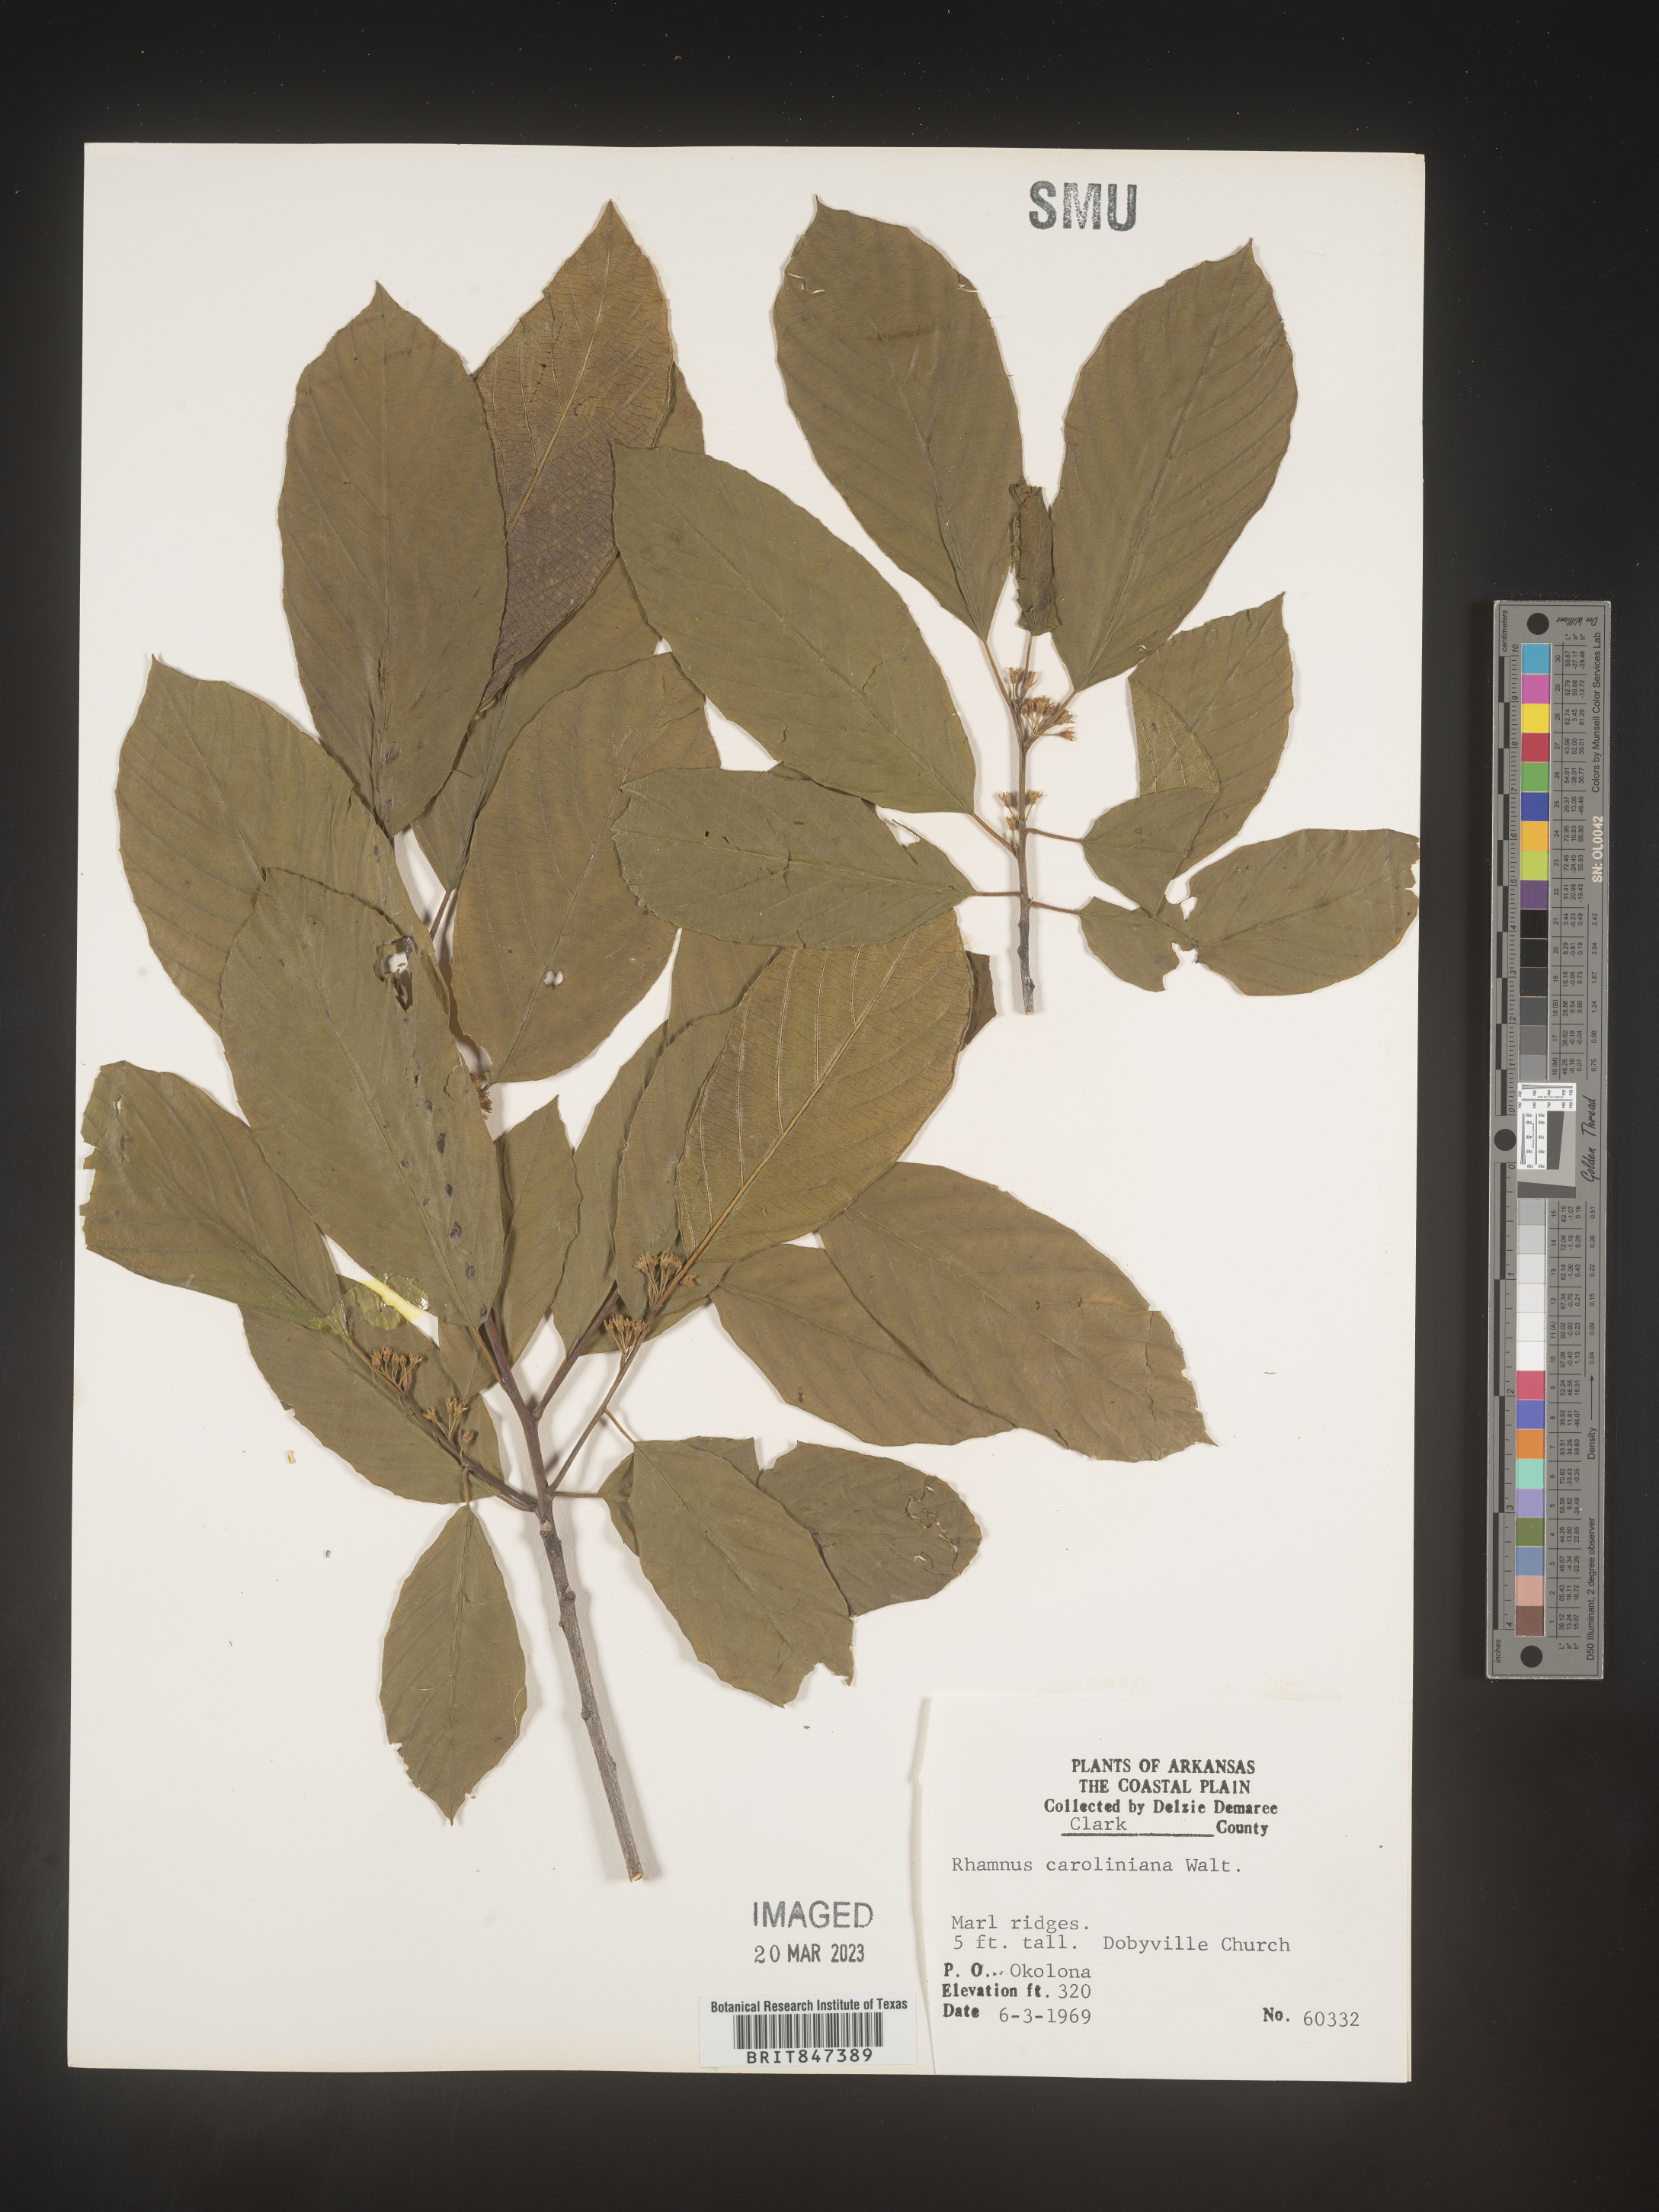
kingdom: Plantae
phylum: Tracheophyta
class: Magnoliopsida
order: Rosales
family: Rhamnaceae
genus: Frangula
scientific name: Frangula caroliniana
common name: Carolina buckthorn
